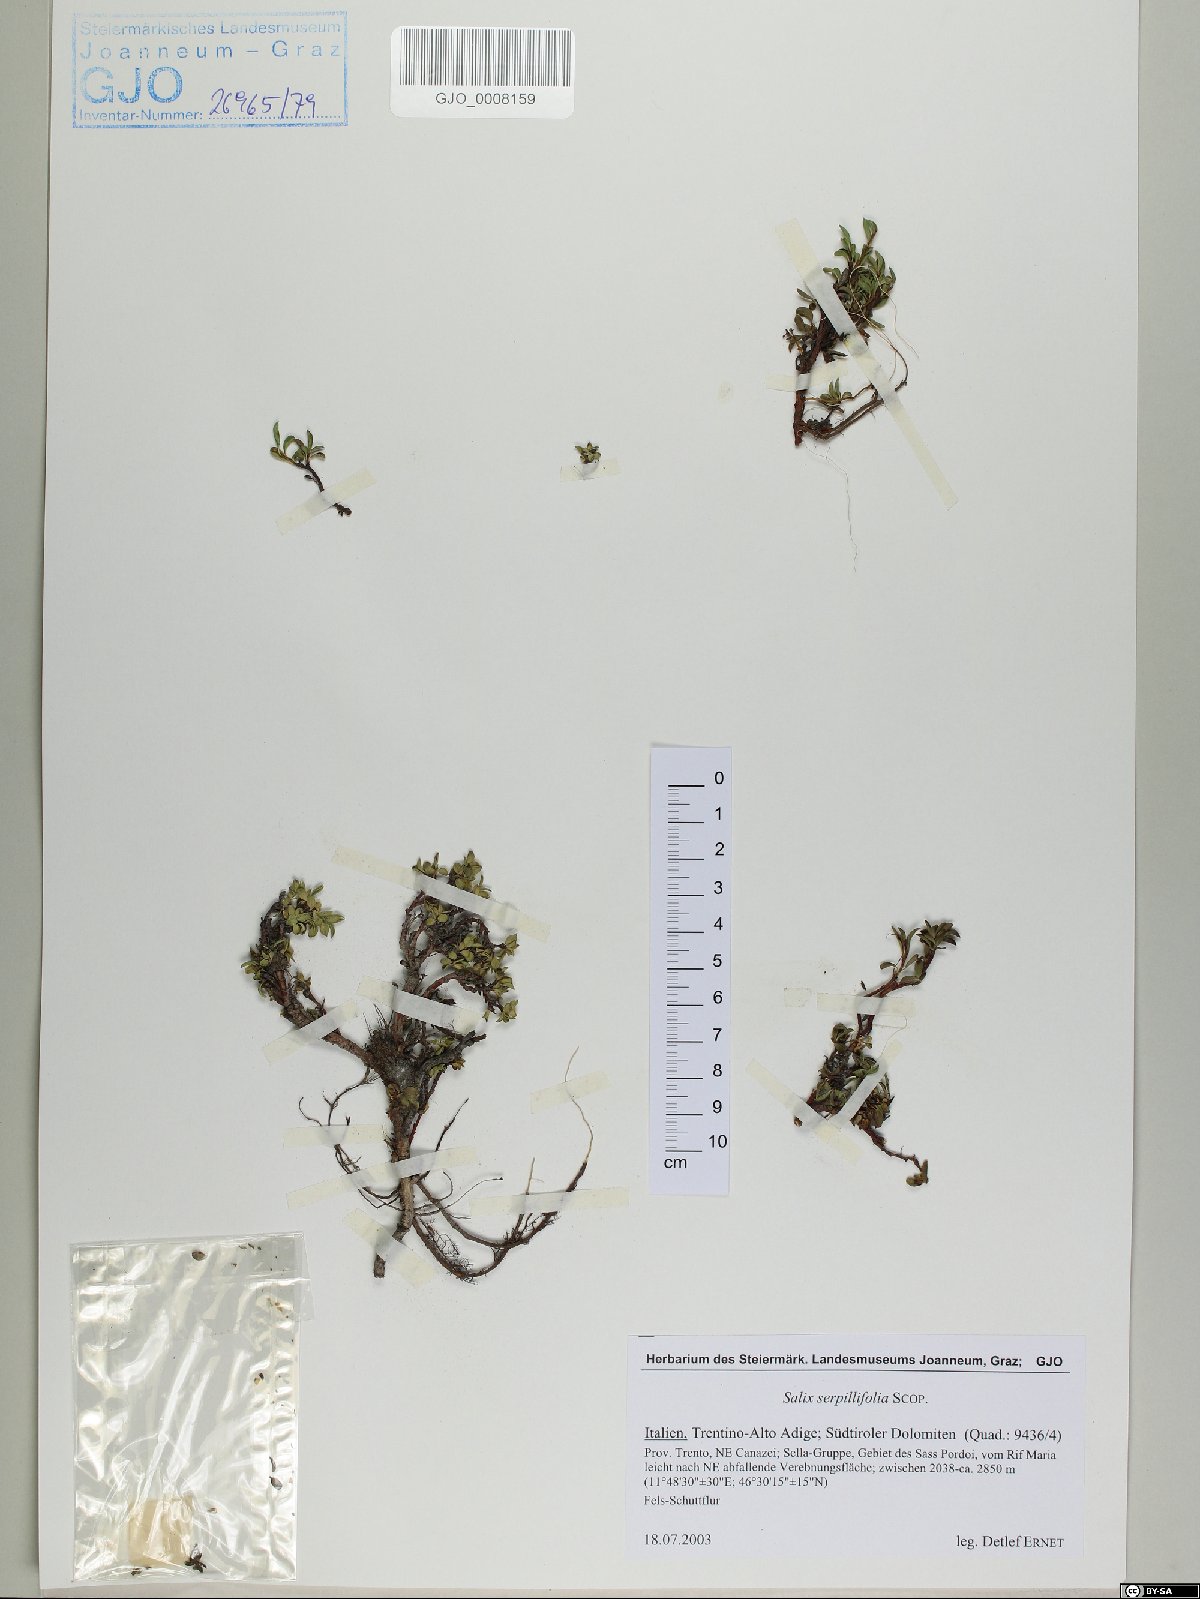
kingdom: Plantae
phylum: Tracheophyta
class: Magnoliopsida
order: Malpighiales
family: Salicaceae
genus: Salix
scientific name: Salix serpillifolia
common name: Thyme-leaf willow
